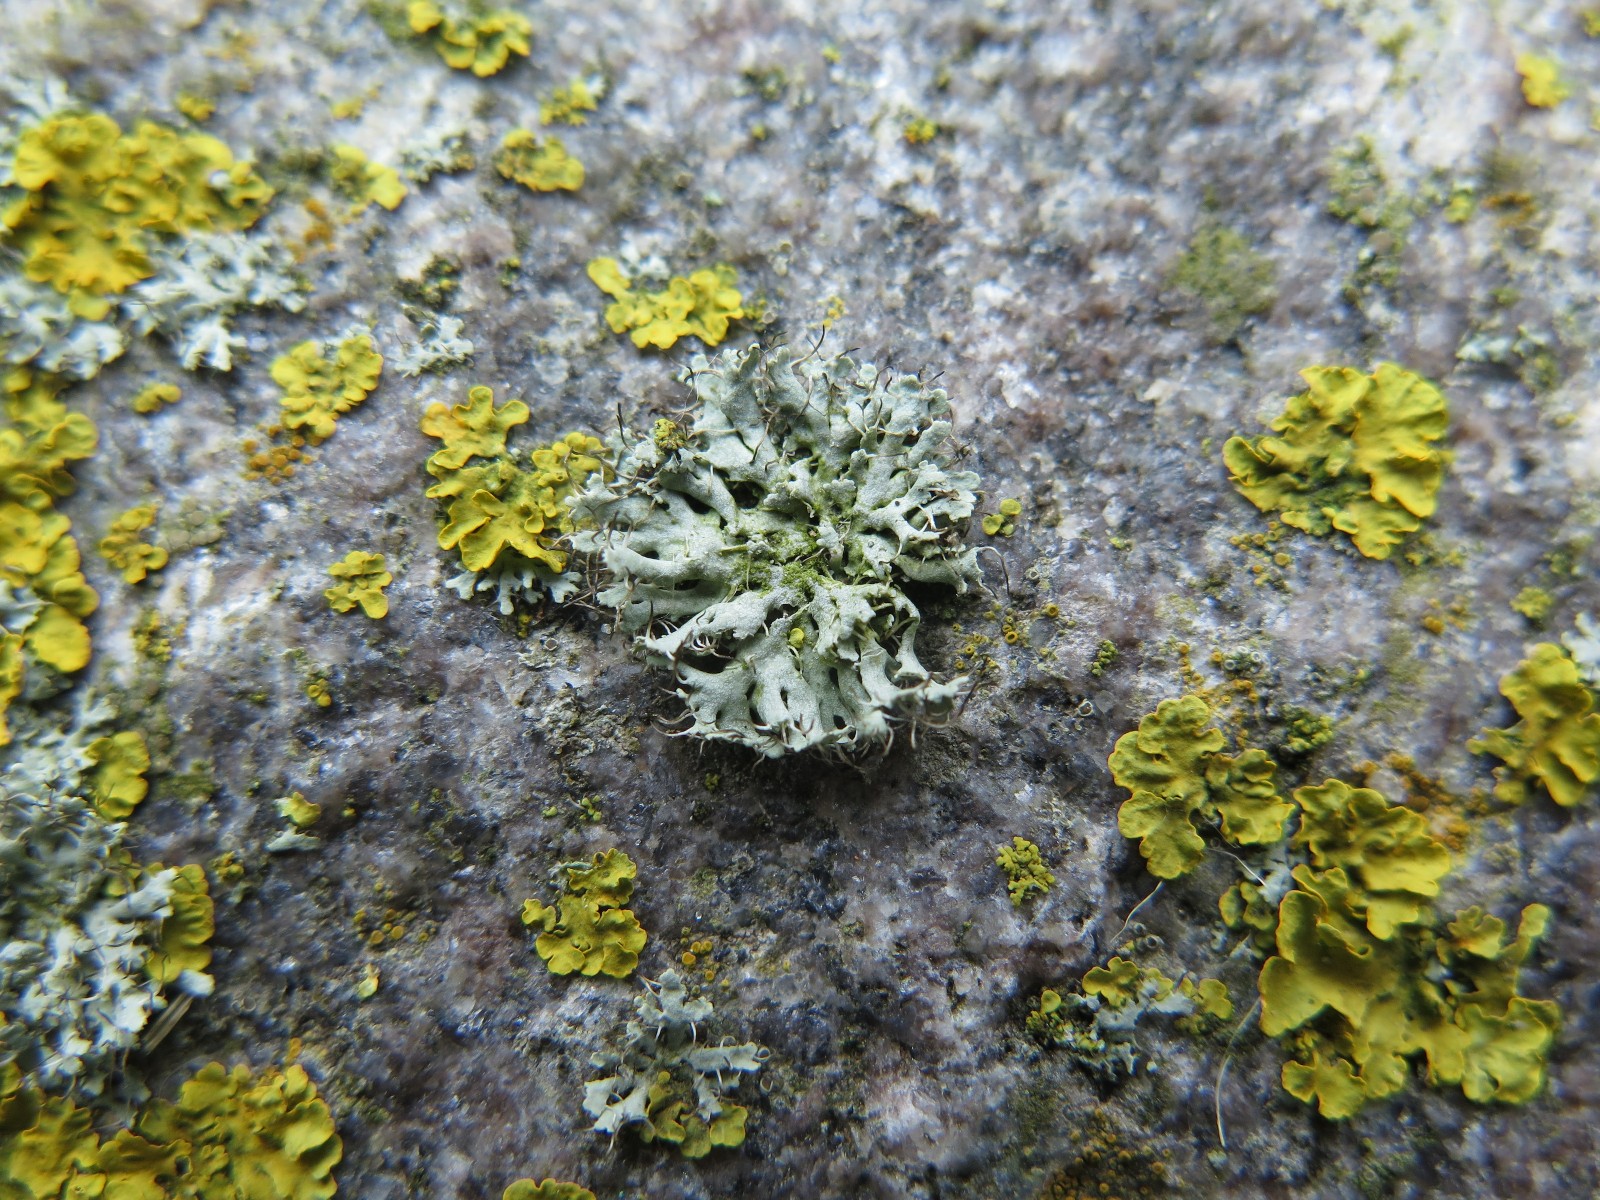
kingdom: Fungi
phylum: Ascomycota
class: Lecanoromycetes
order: Caliciales
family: Physciaceae
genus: Physcia
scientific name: Physcia tenella
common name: spæd rosetlav
